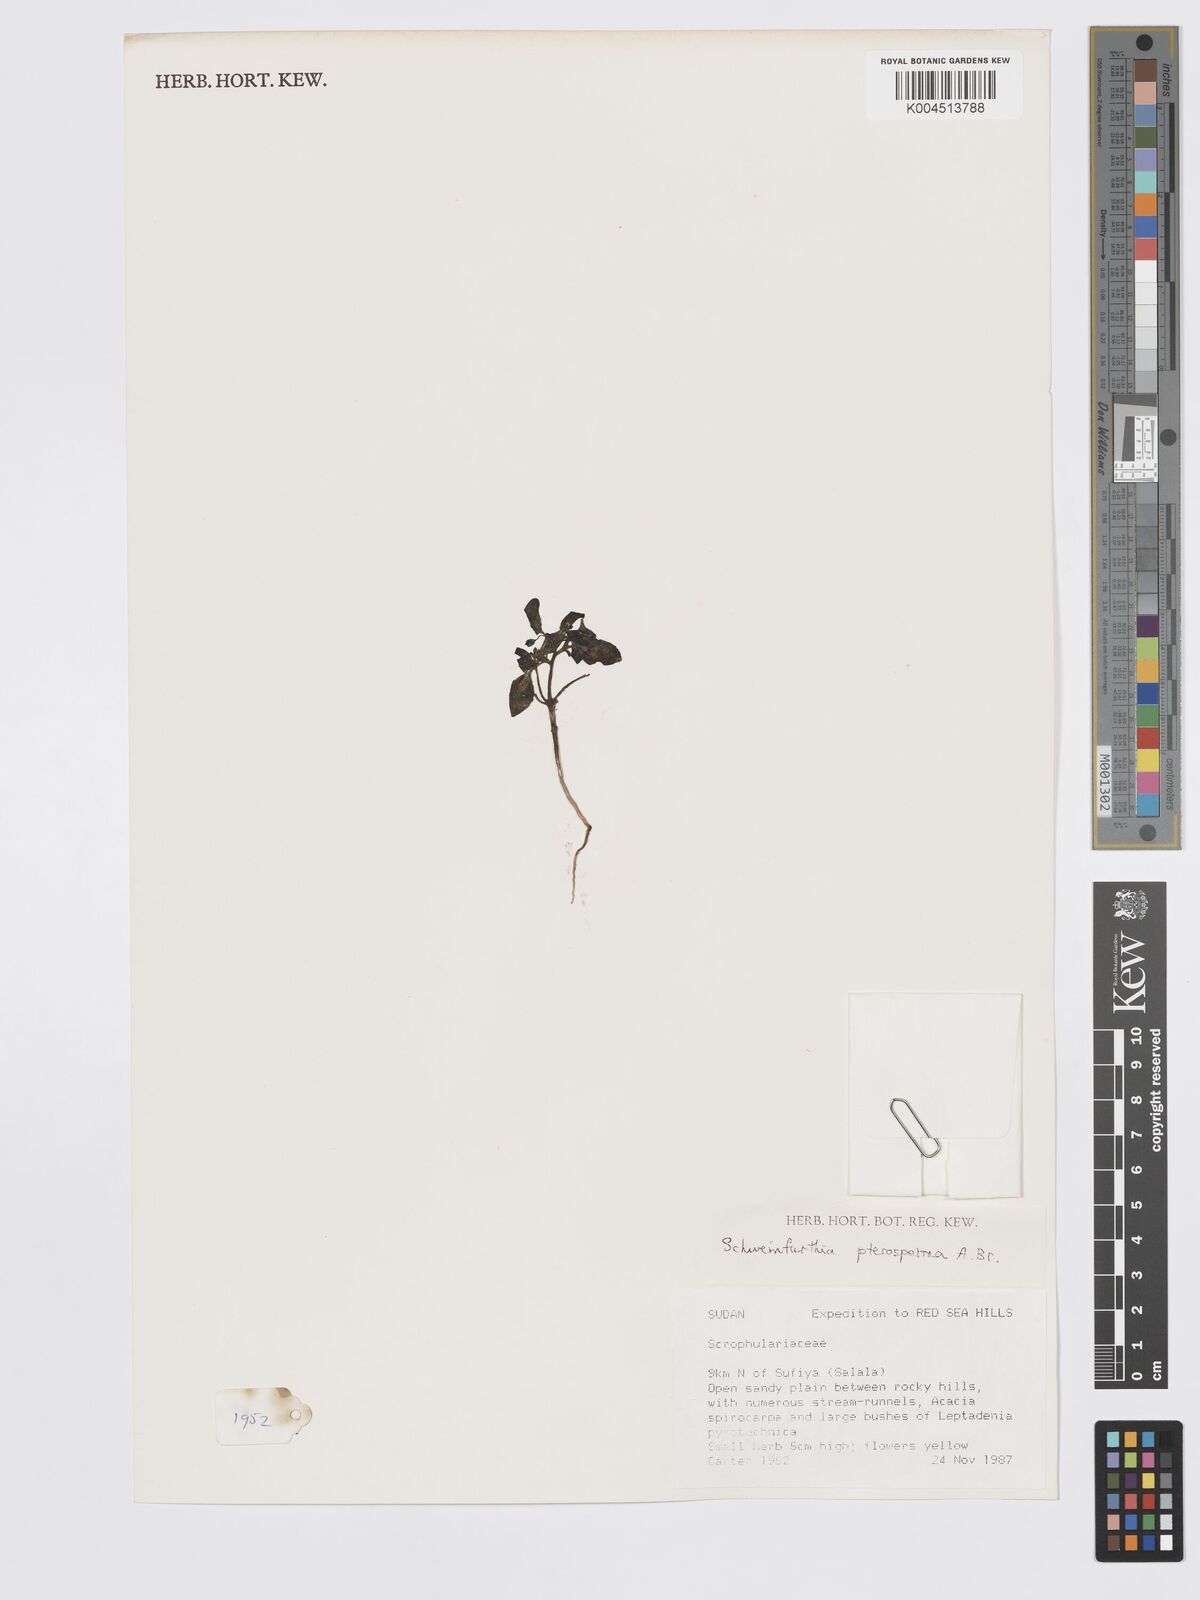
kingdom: Plantae
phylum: Tracheophyta
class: Magnoliopsida
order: Lamiales
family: Plantaginaceae
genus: Schweinfurthia
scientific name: Schweinfurthia pterosperma
